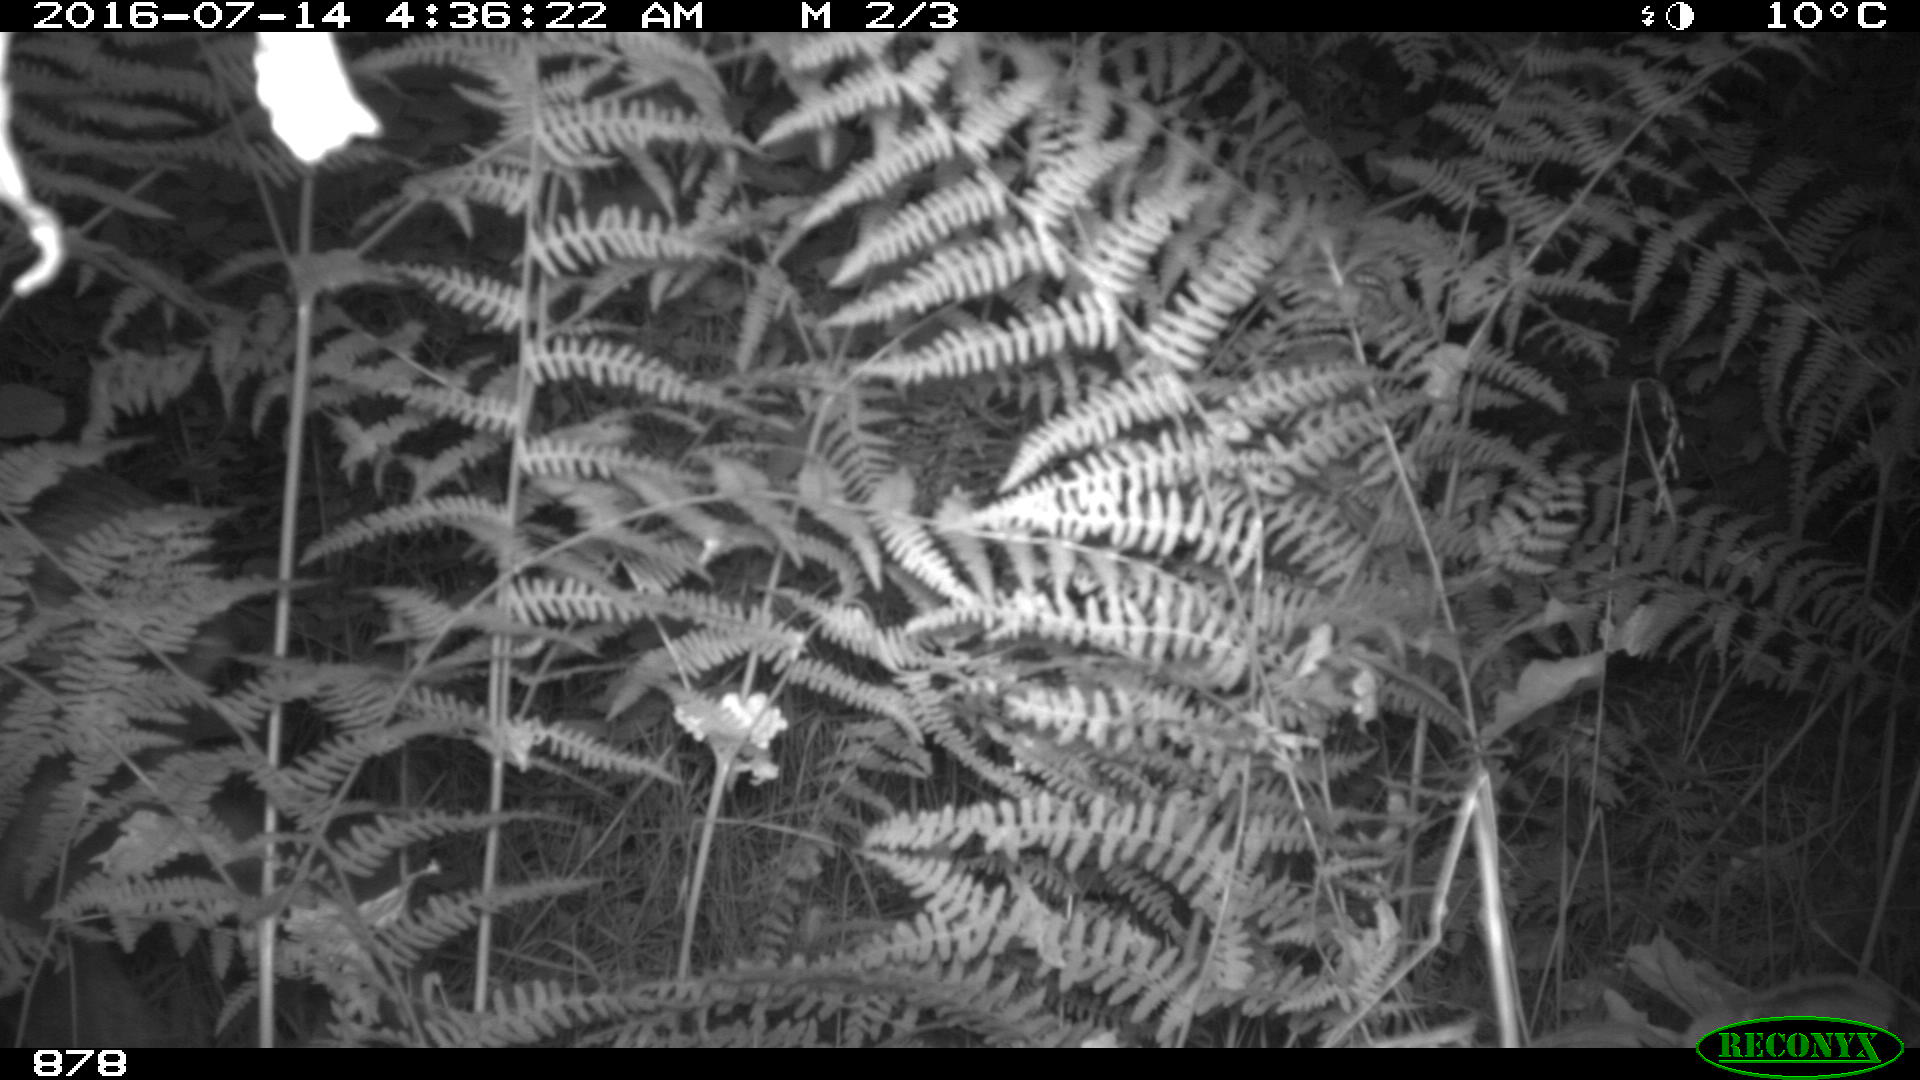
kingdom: Animalia
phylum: Chordata
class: Mammalia
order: Artiodactyla
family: Cervidae
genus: Capreolus
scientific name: Capreolus capreolus
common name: Western roe deer
